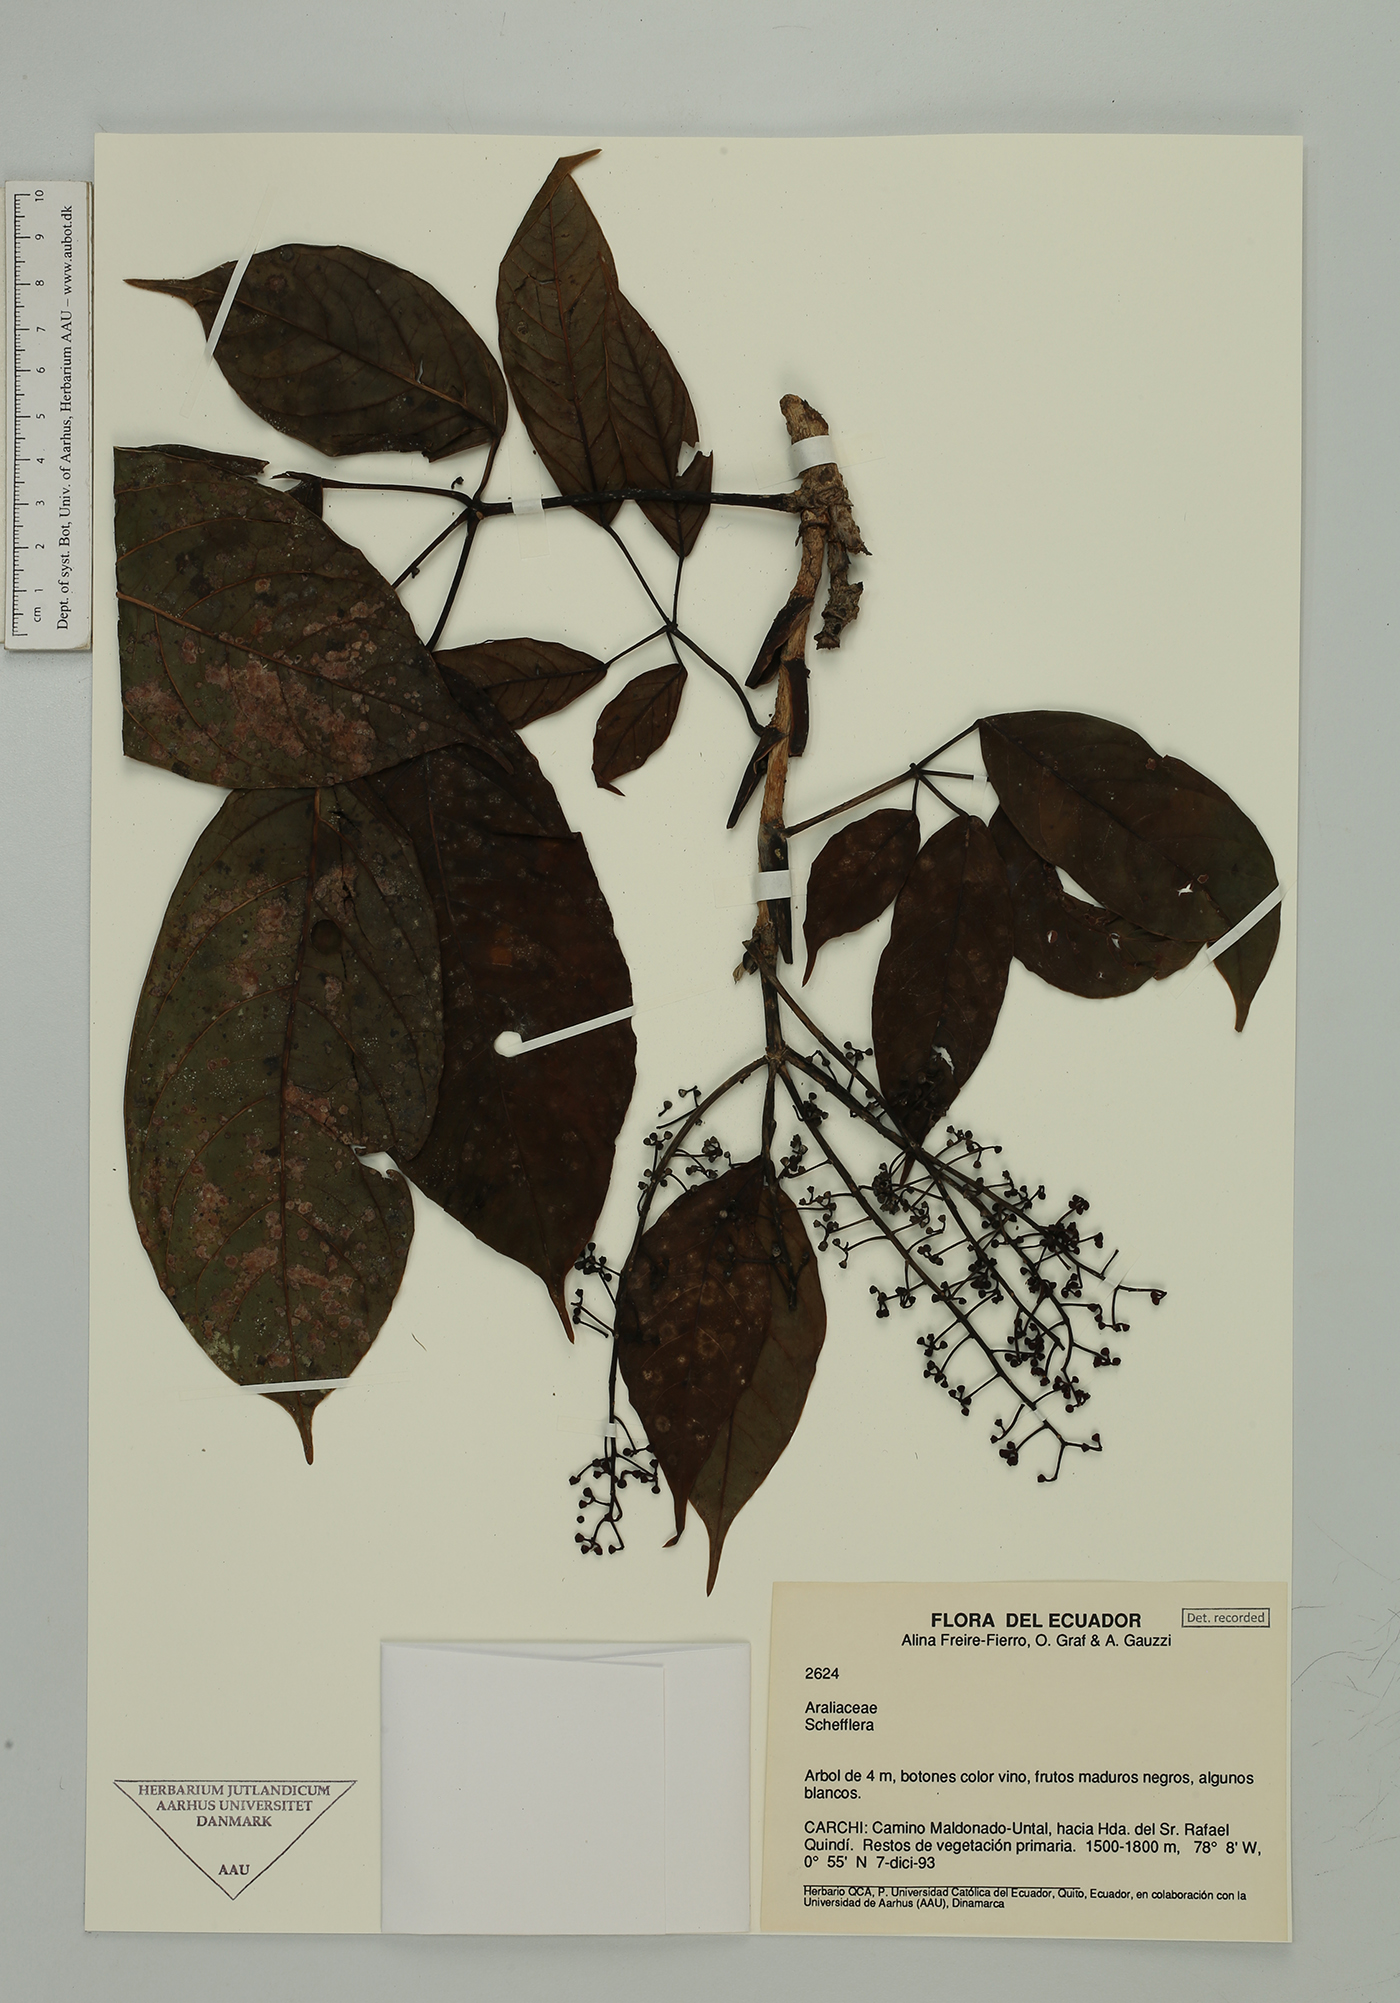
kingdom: Plantae
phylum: Tracheophyta
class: Magnoliopsida
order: Apiales
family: Araliaceae
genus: Sciodaphyllum
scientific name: Sciodaphyllum
